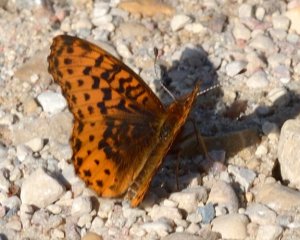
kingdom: Animalia
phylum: Arthropoda
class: Insecta
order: Lepidoptera
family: Nymphalidae
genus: Clossiana
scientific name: Clossiana toddi
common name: Meadow Fritillary
